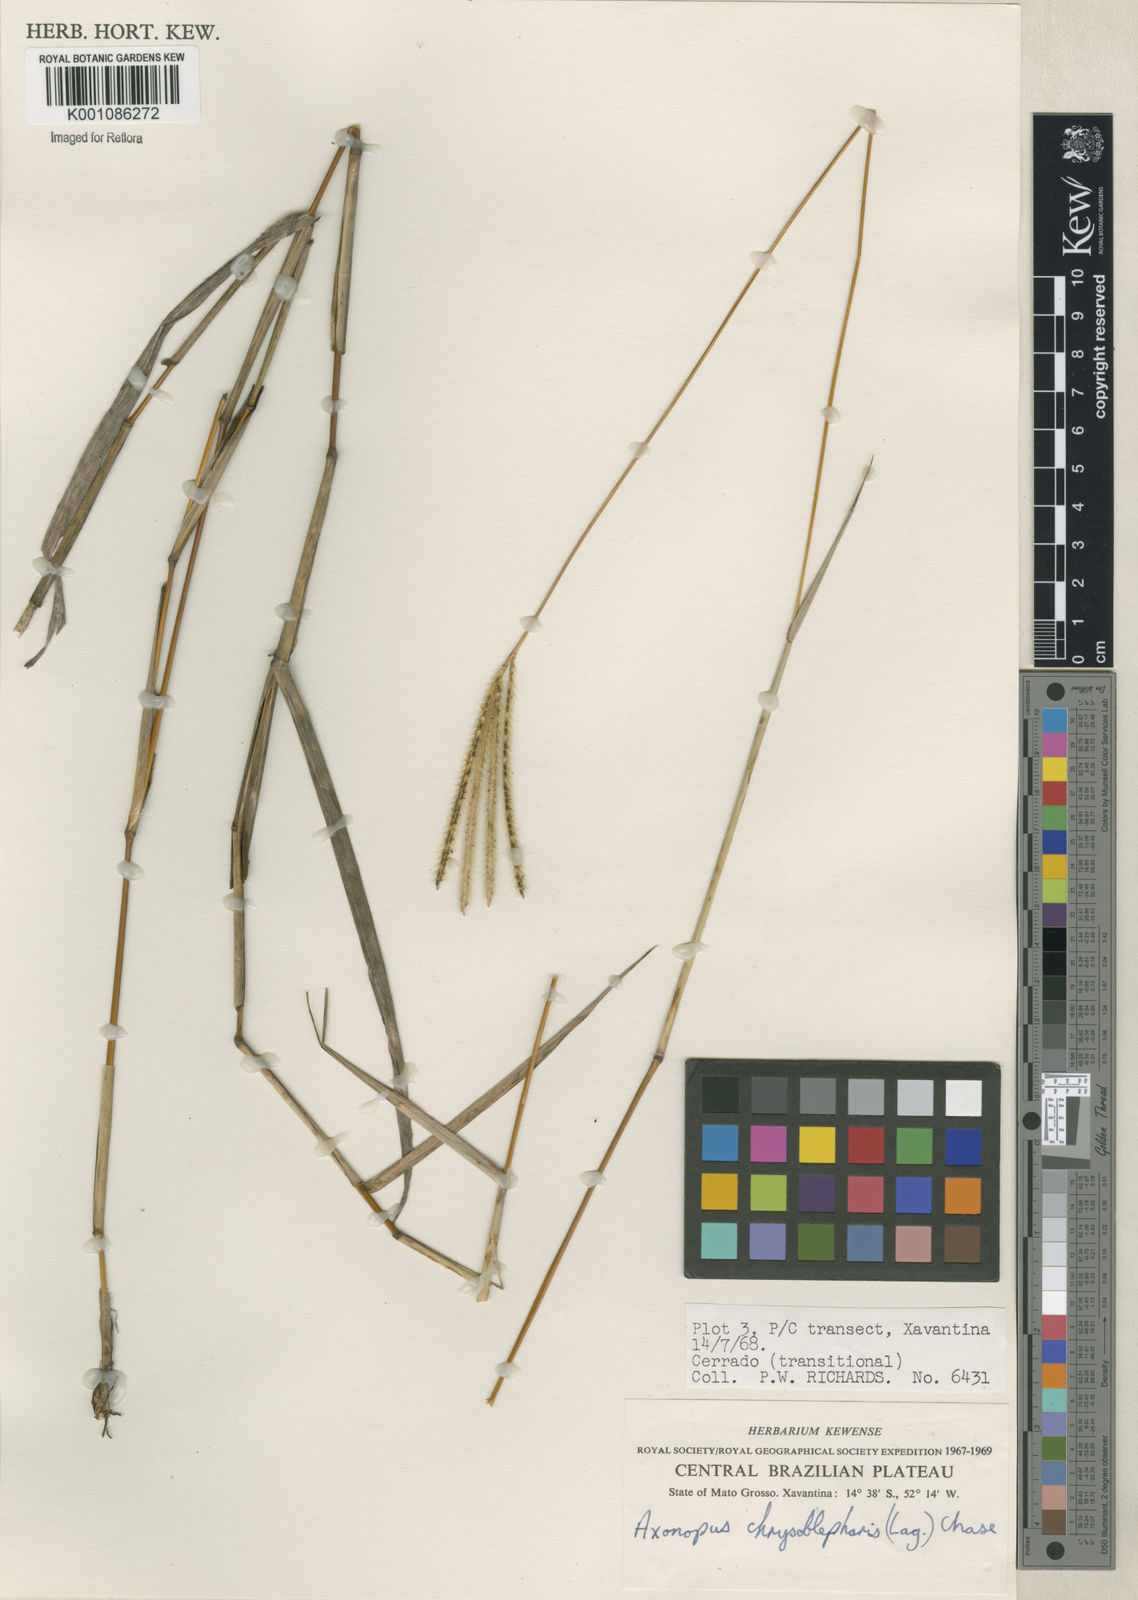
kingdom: Plantae
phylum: Tracheophyta
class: Liliopsida
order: Poales
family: Poaceae
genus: Axonopus
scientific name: Axonopus chrysoblepharis
